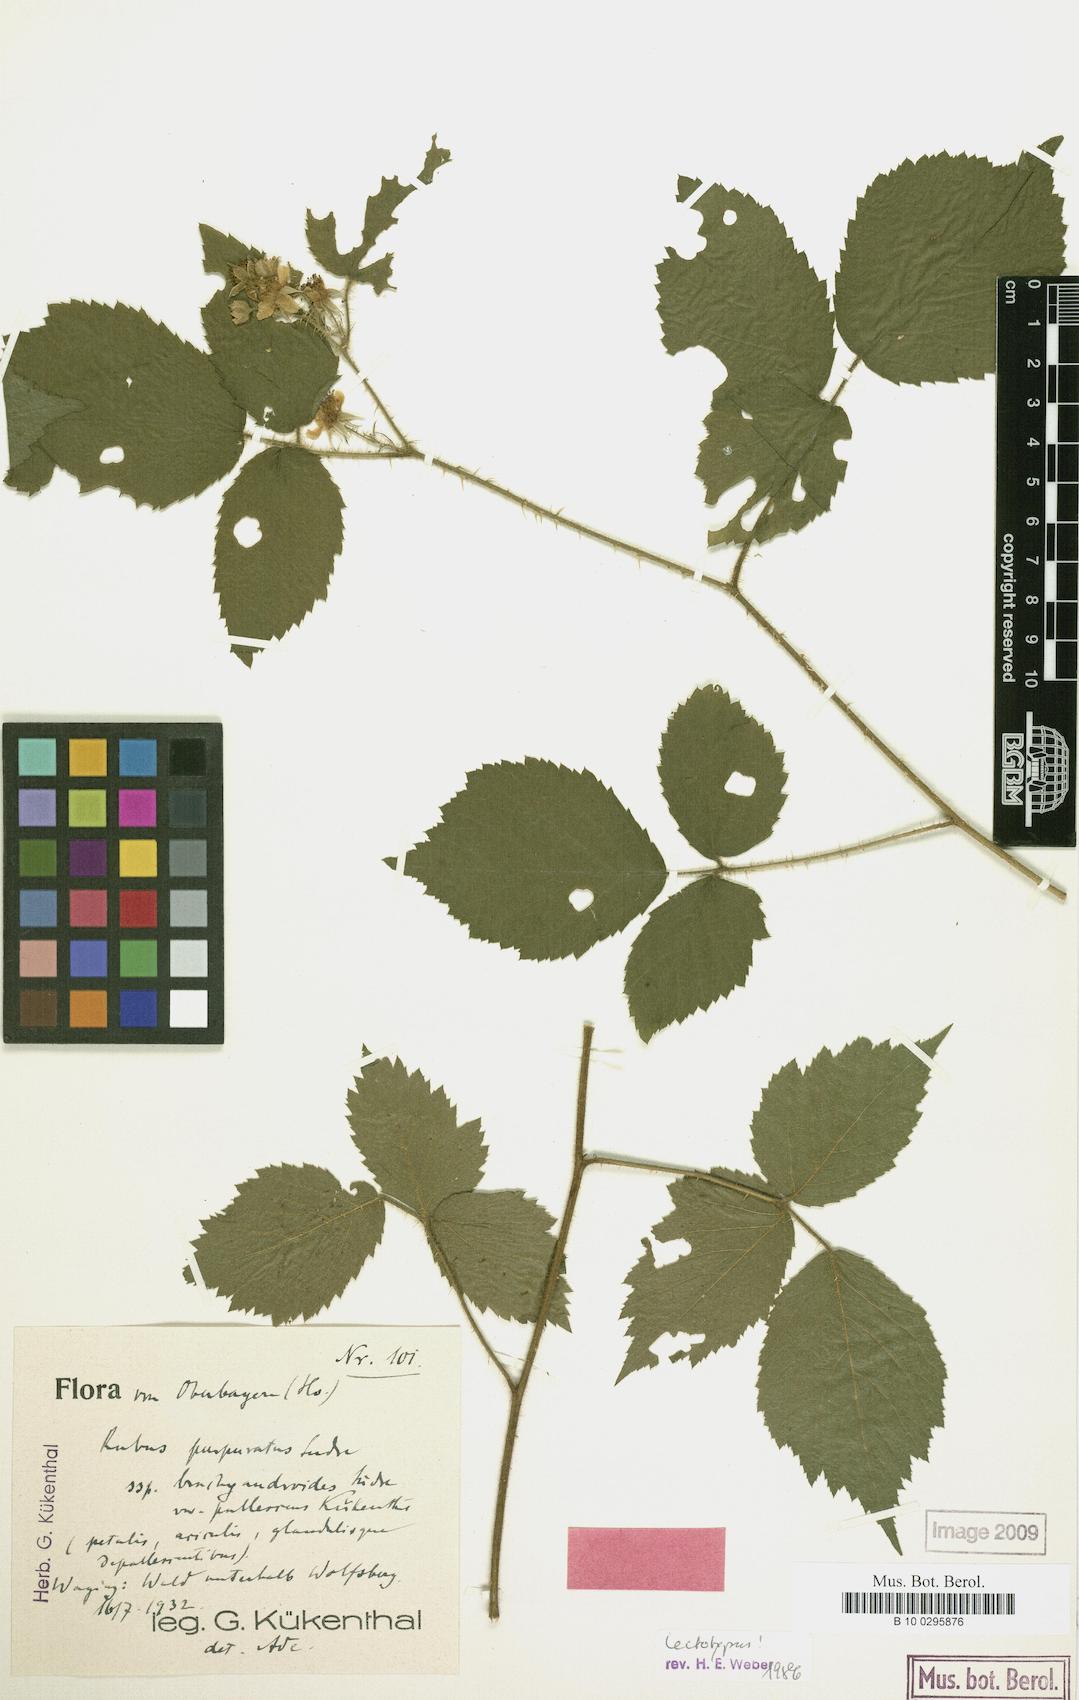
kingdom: Plantae
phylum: Tracheophyta
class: Magnoliopsida
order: Rosales
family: Rosaceae
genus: Rubus
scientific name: Rubus amphistrophos
